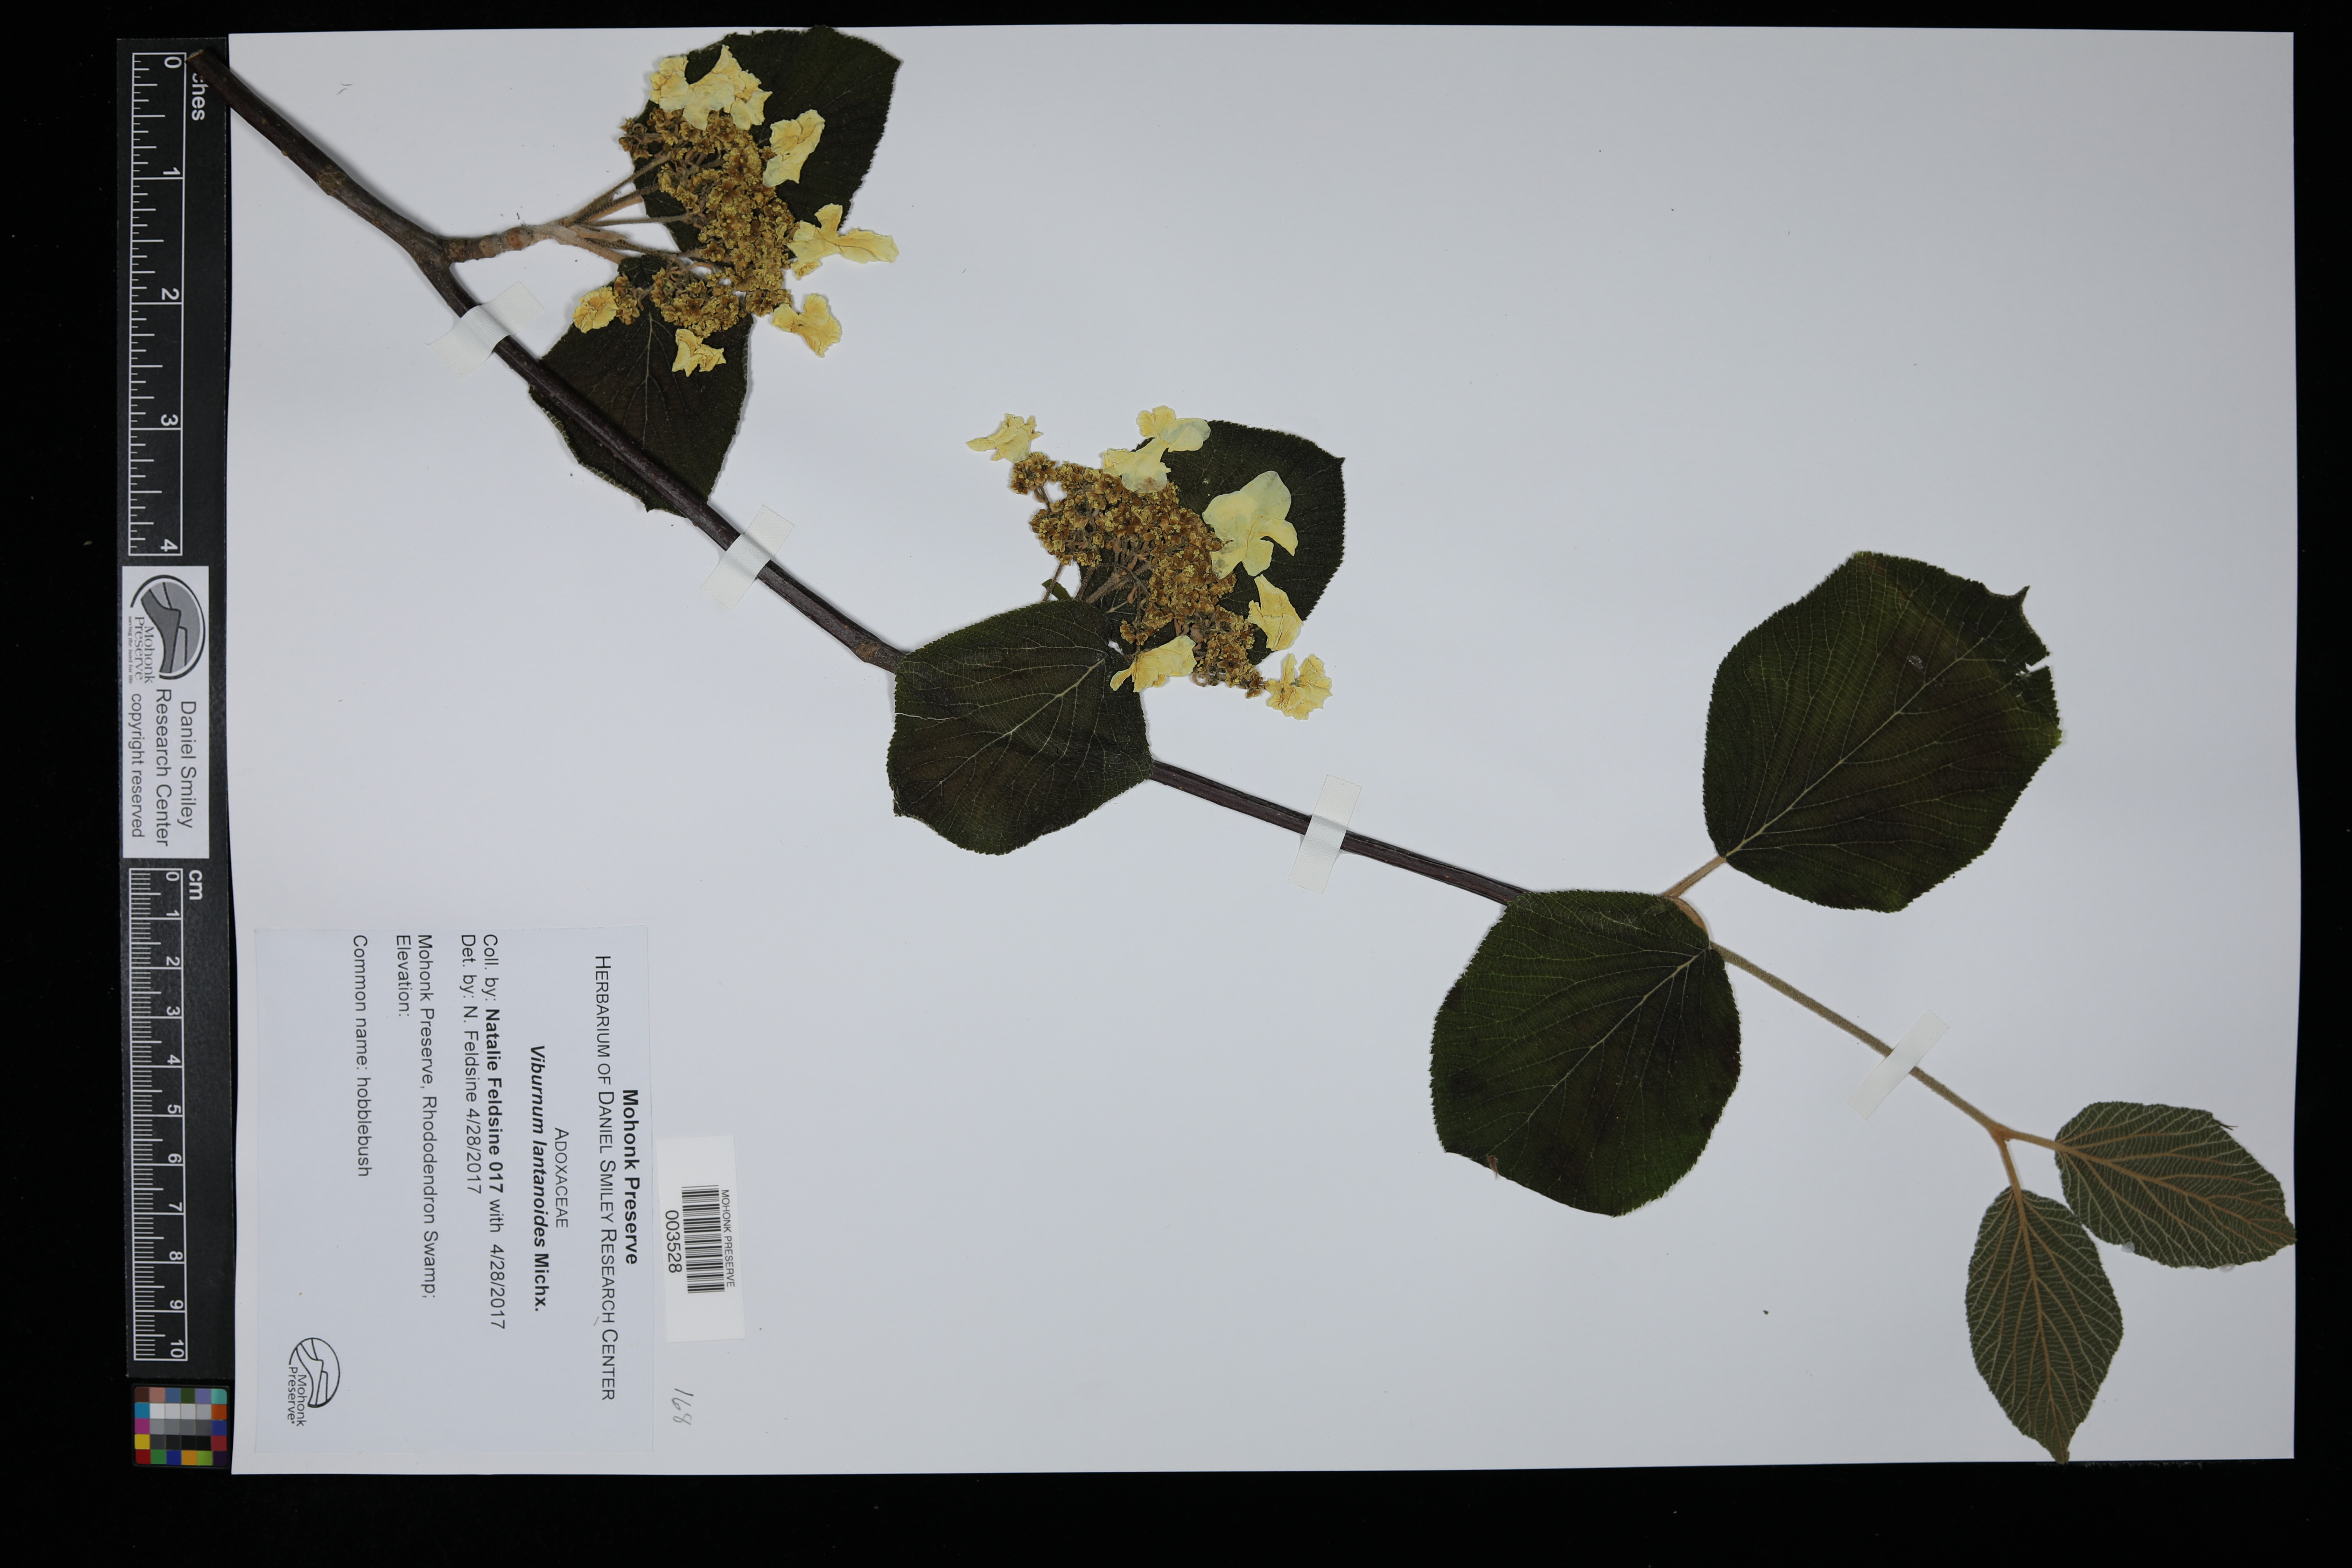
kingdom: Plantae
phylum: Tracheophyta
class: Magnoliopsida
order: Dipsacales
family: Viburnaceae
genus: Viburnum
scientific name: Viburnum lantanoides
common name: Hobblebush
